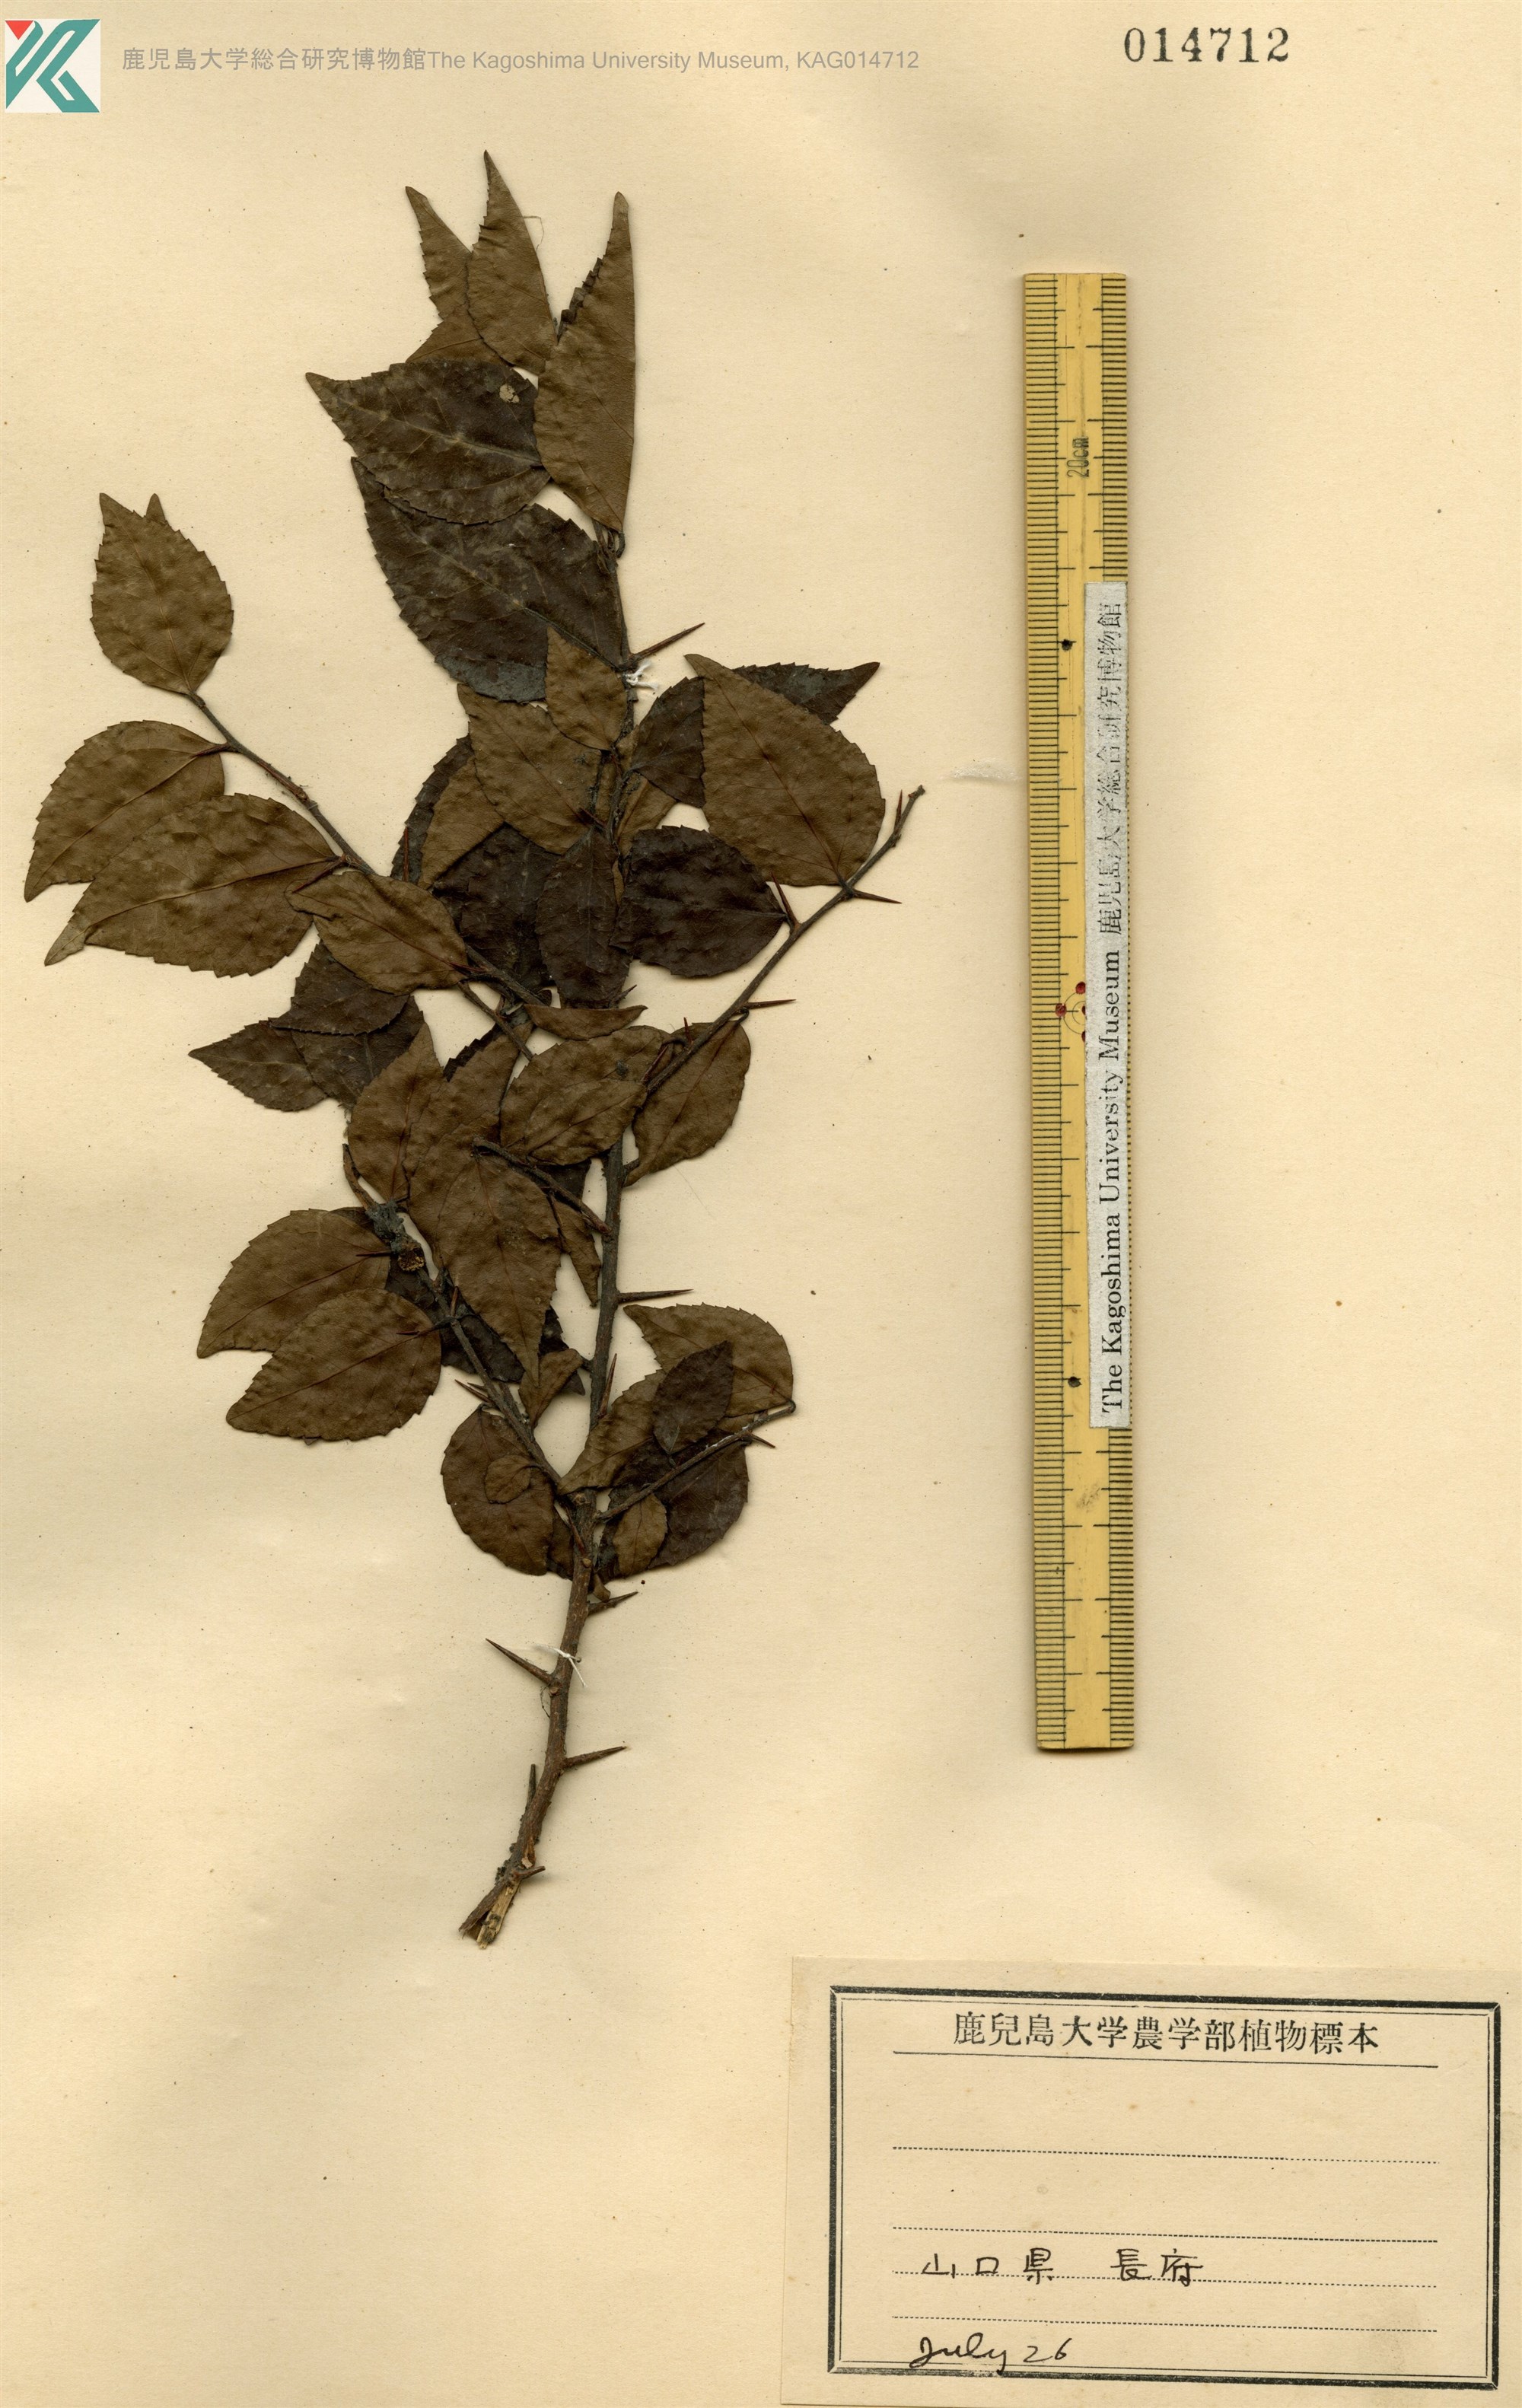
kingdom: Plantae
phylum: Tracheophyta
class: Magnoliopsida
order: Malpighiales
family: Salicaceae
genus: Xylosma
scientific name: Xylosma racemosum
